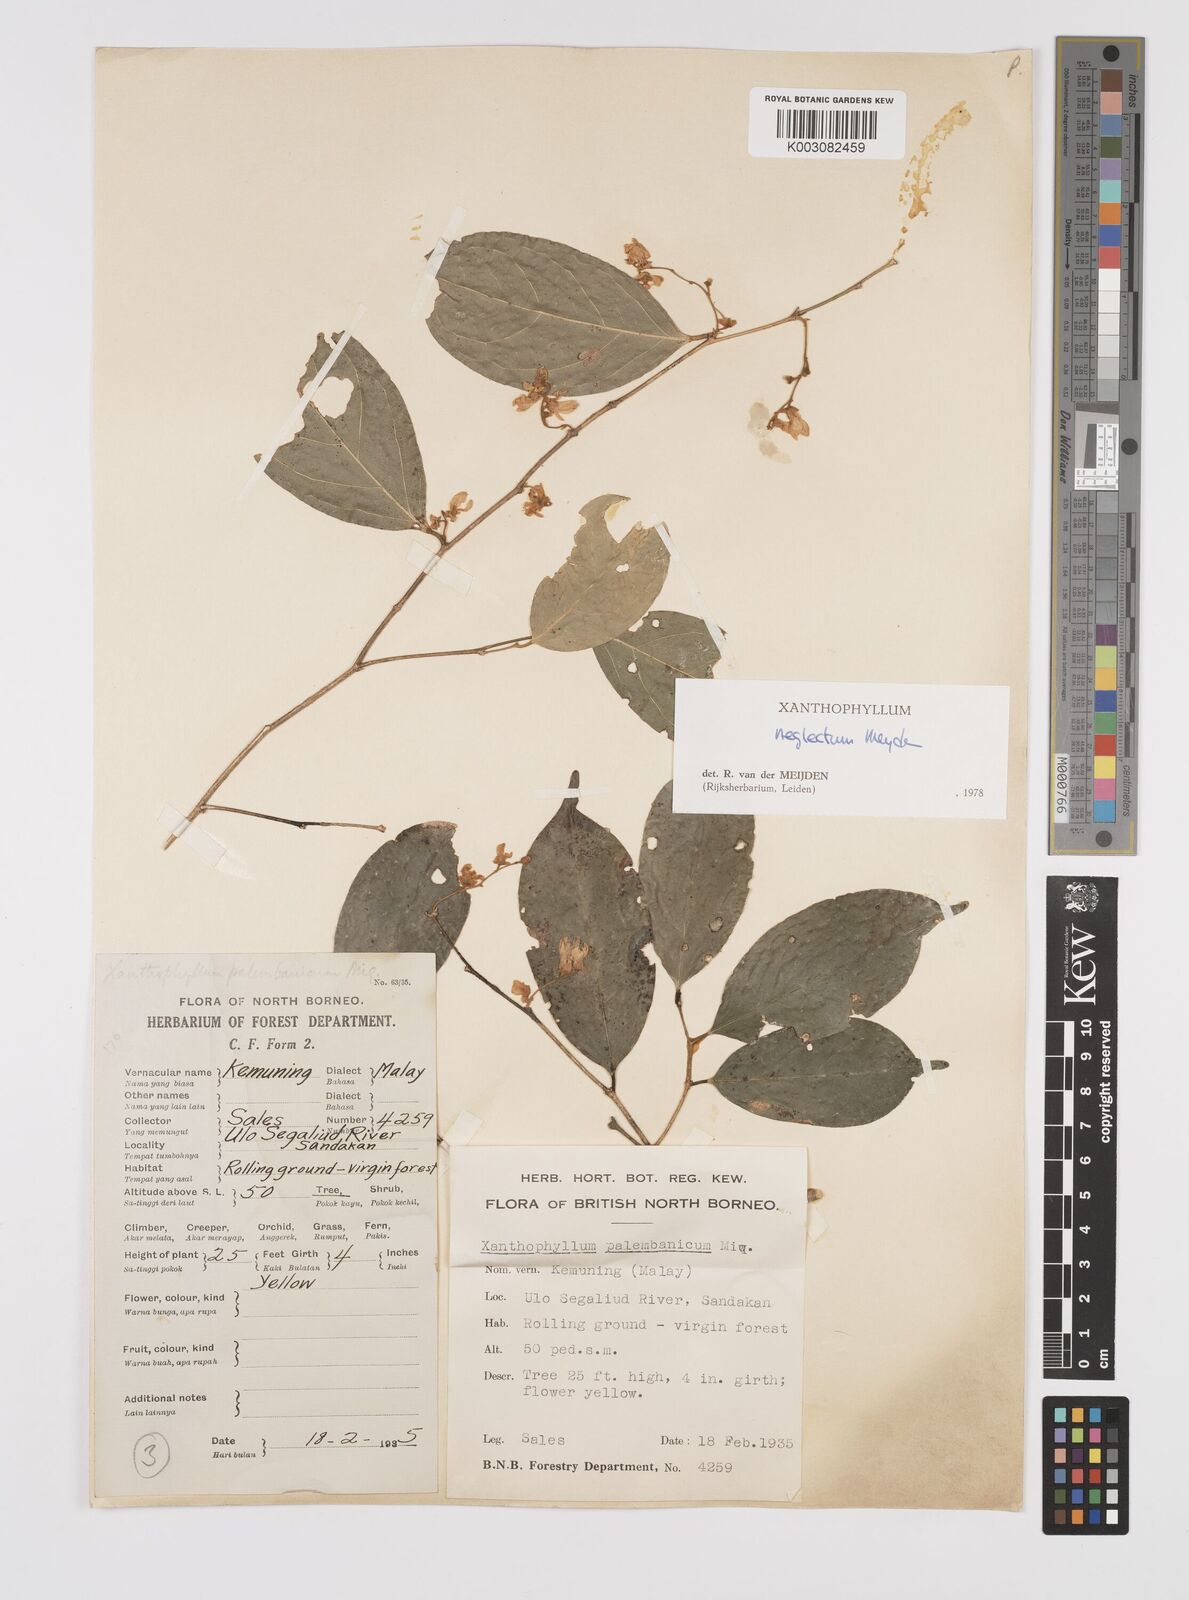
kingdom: Plantae
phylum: Tracheophyta
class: Magnoliopsida
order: Fabales
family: Polygalaceae
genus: Xanthophyllum
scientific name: Xanthophyllum neglectum
